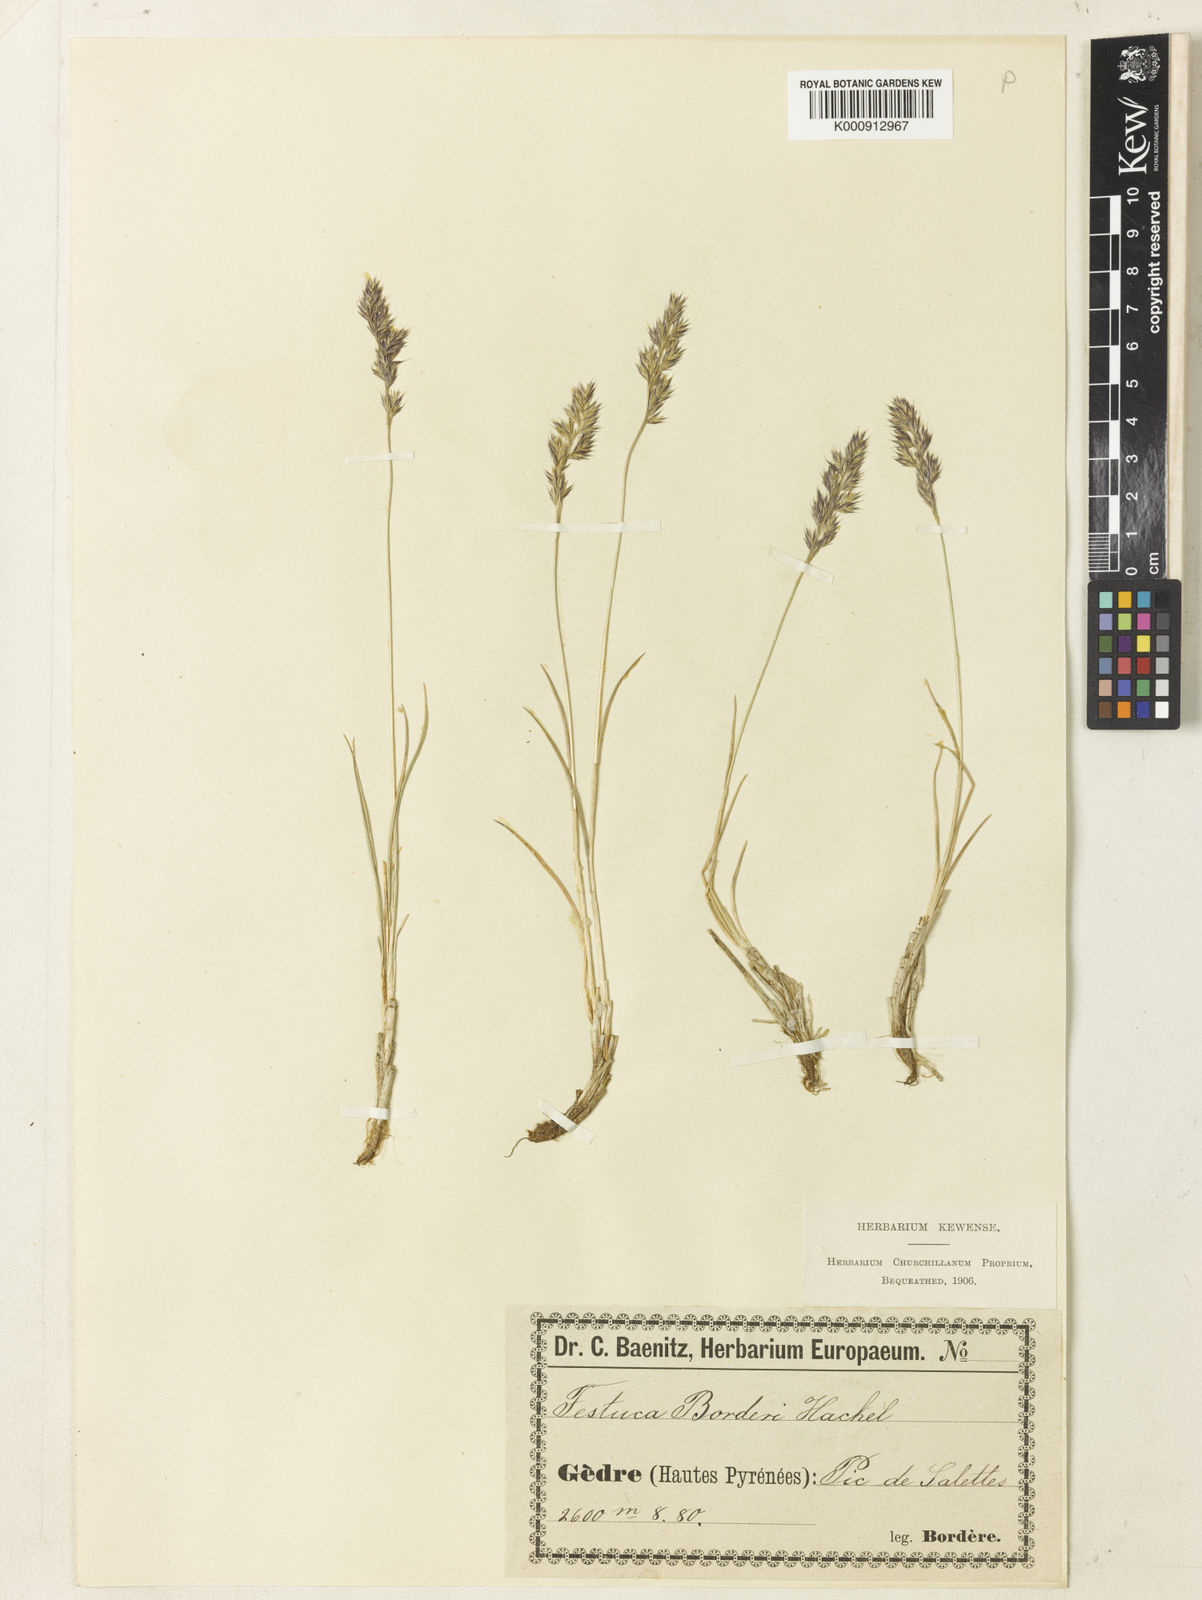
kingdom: Plantae
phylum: Tracheophyta
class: Liliopsida
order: Poales
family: Poaceae
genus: Festuca
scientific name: Festuca borderei
